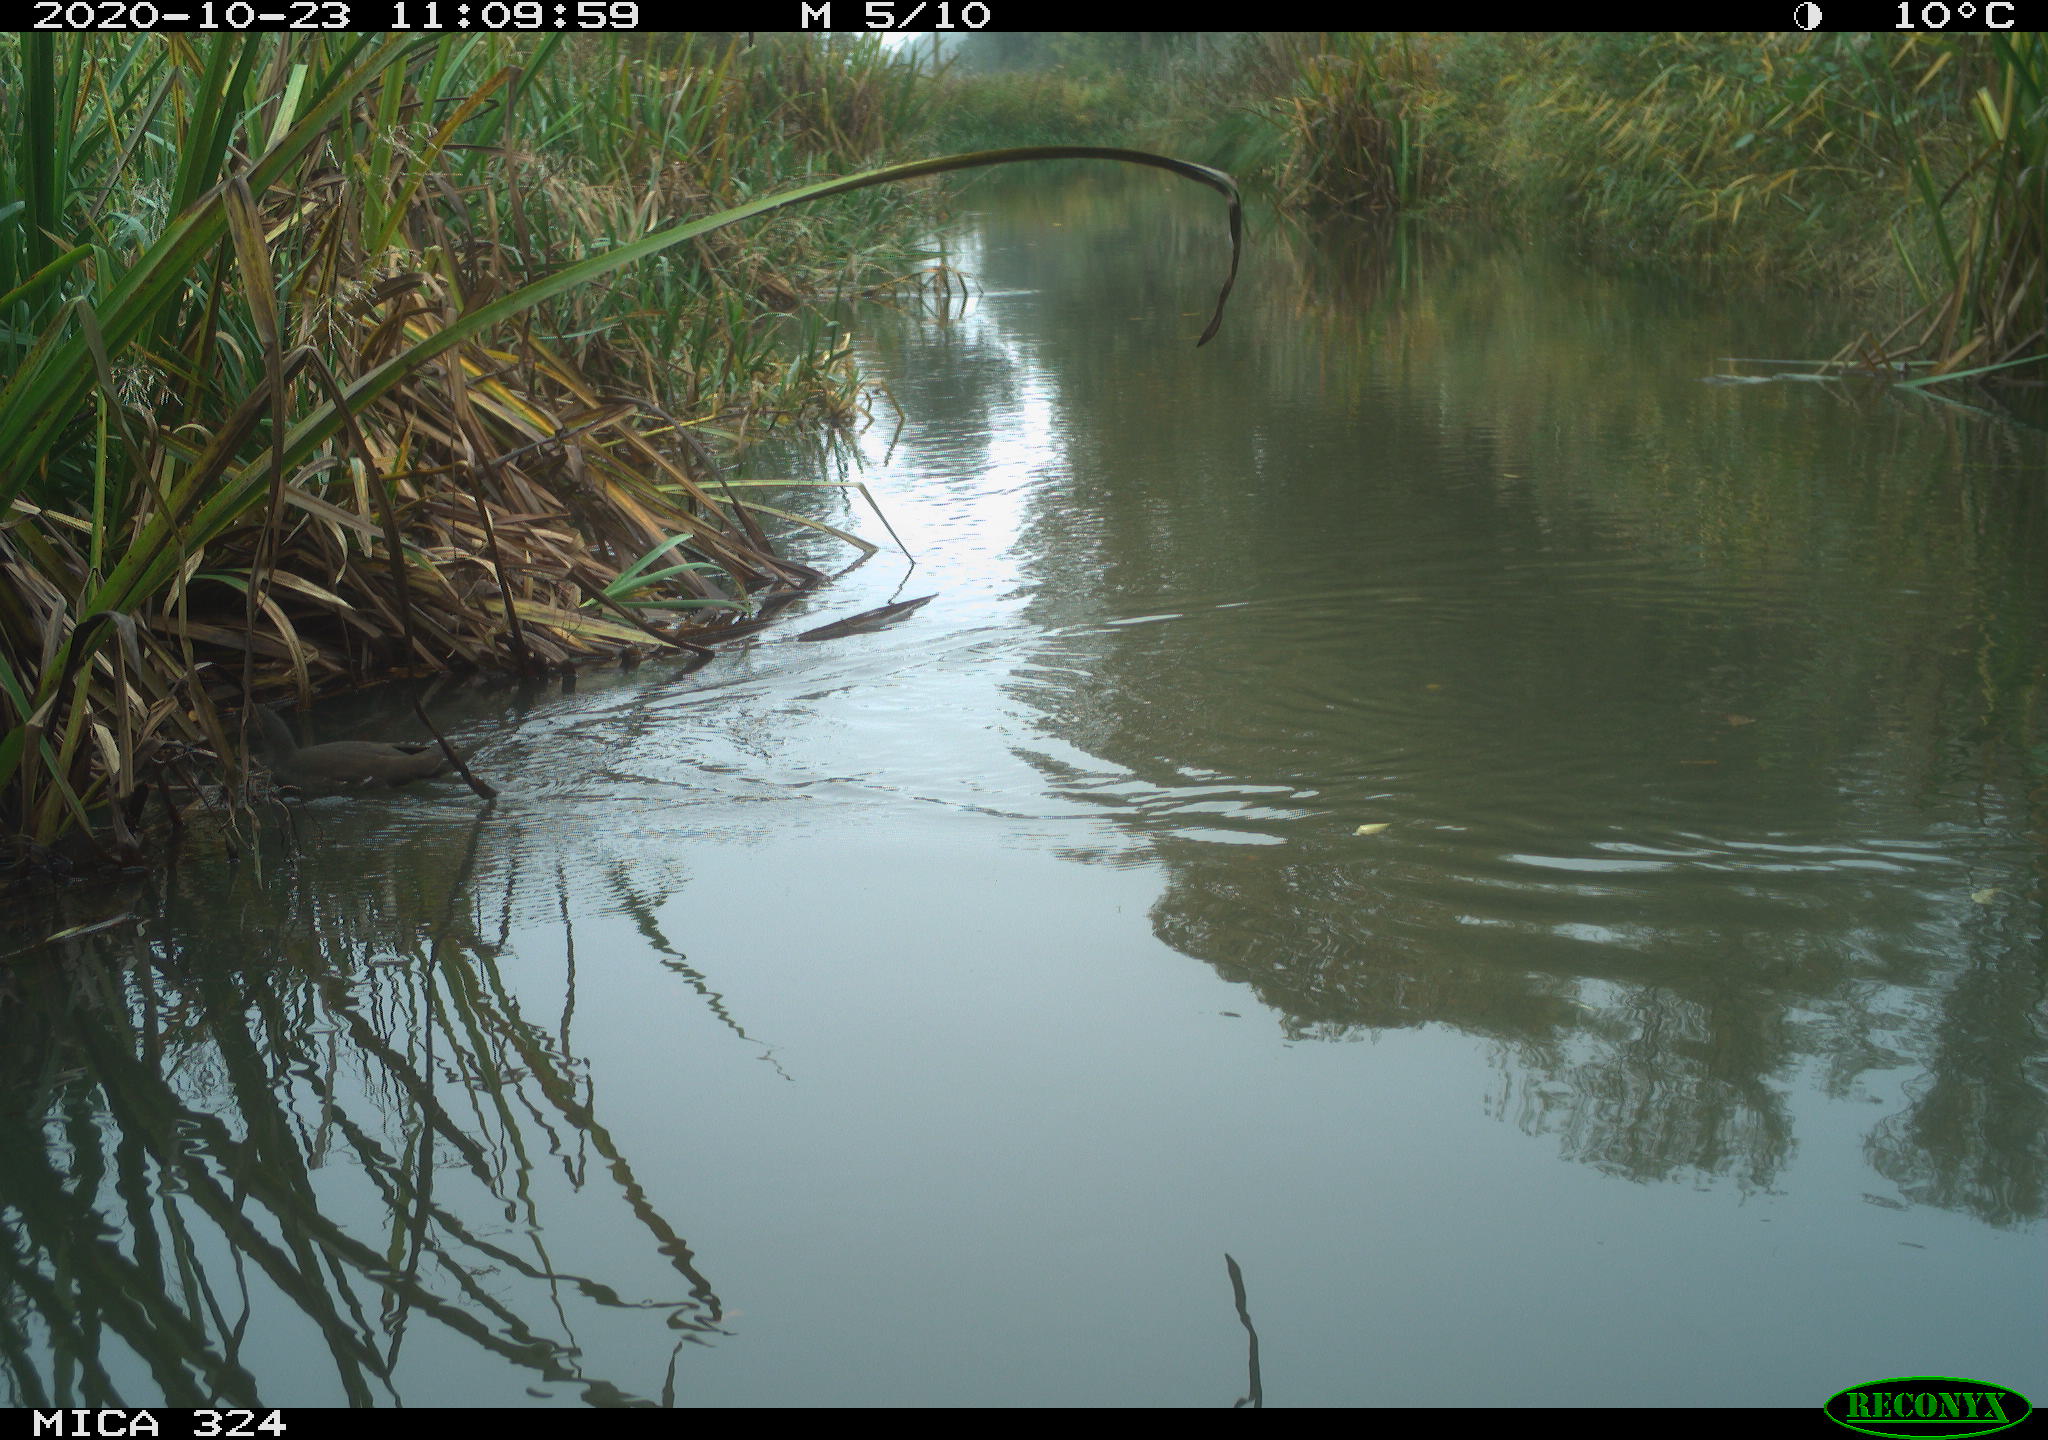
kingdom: Animalia
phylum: Chordata
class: Aves
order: Gruiformes
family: Rallidae
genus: Gallinula
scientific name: Gallinula chloropus
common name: Common moorhen
